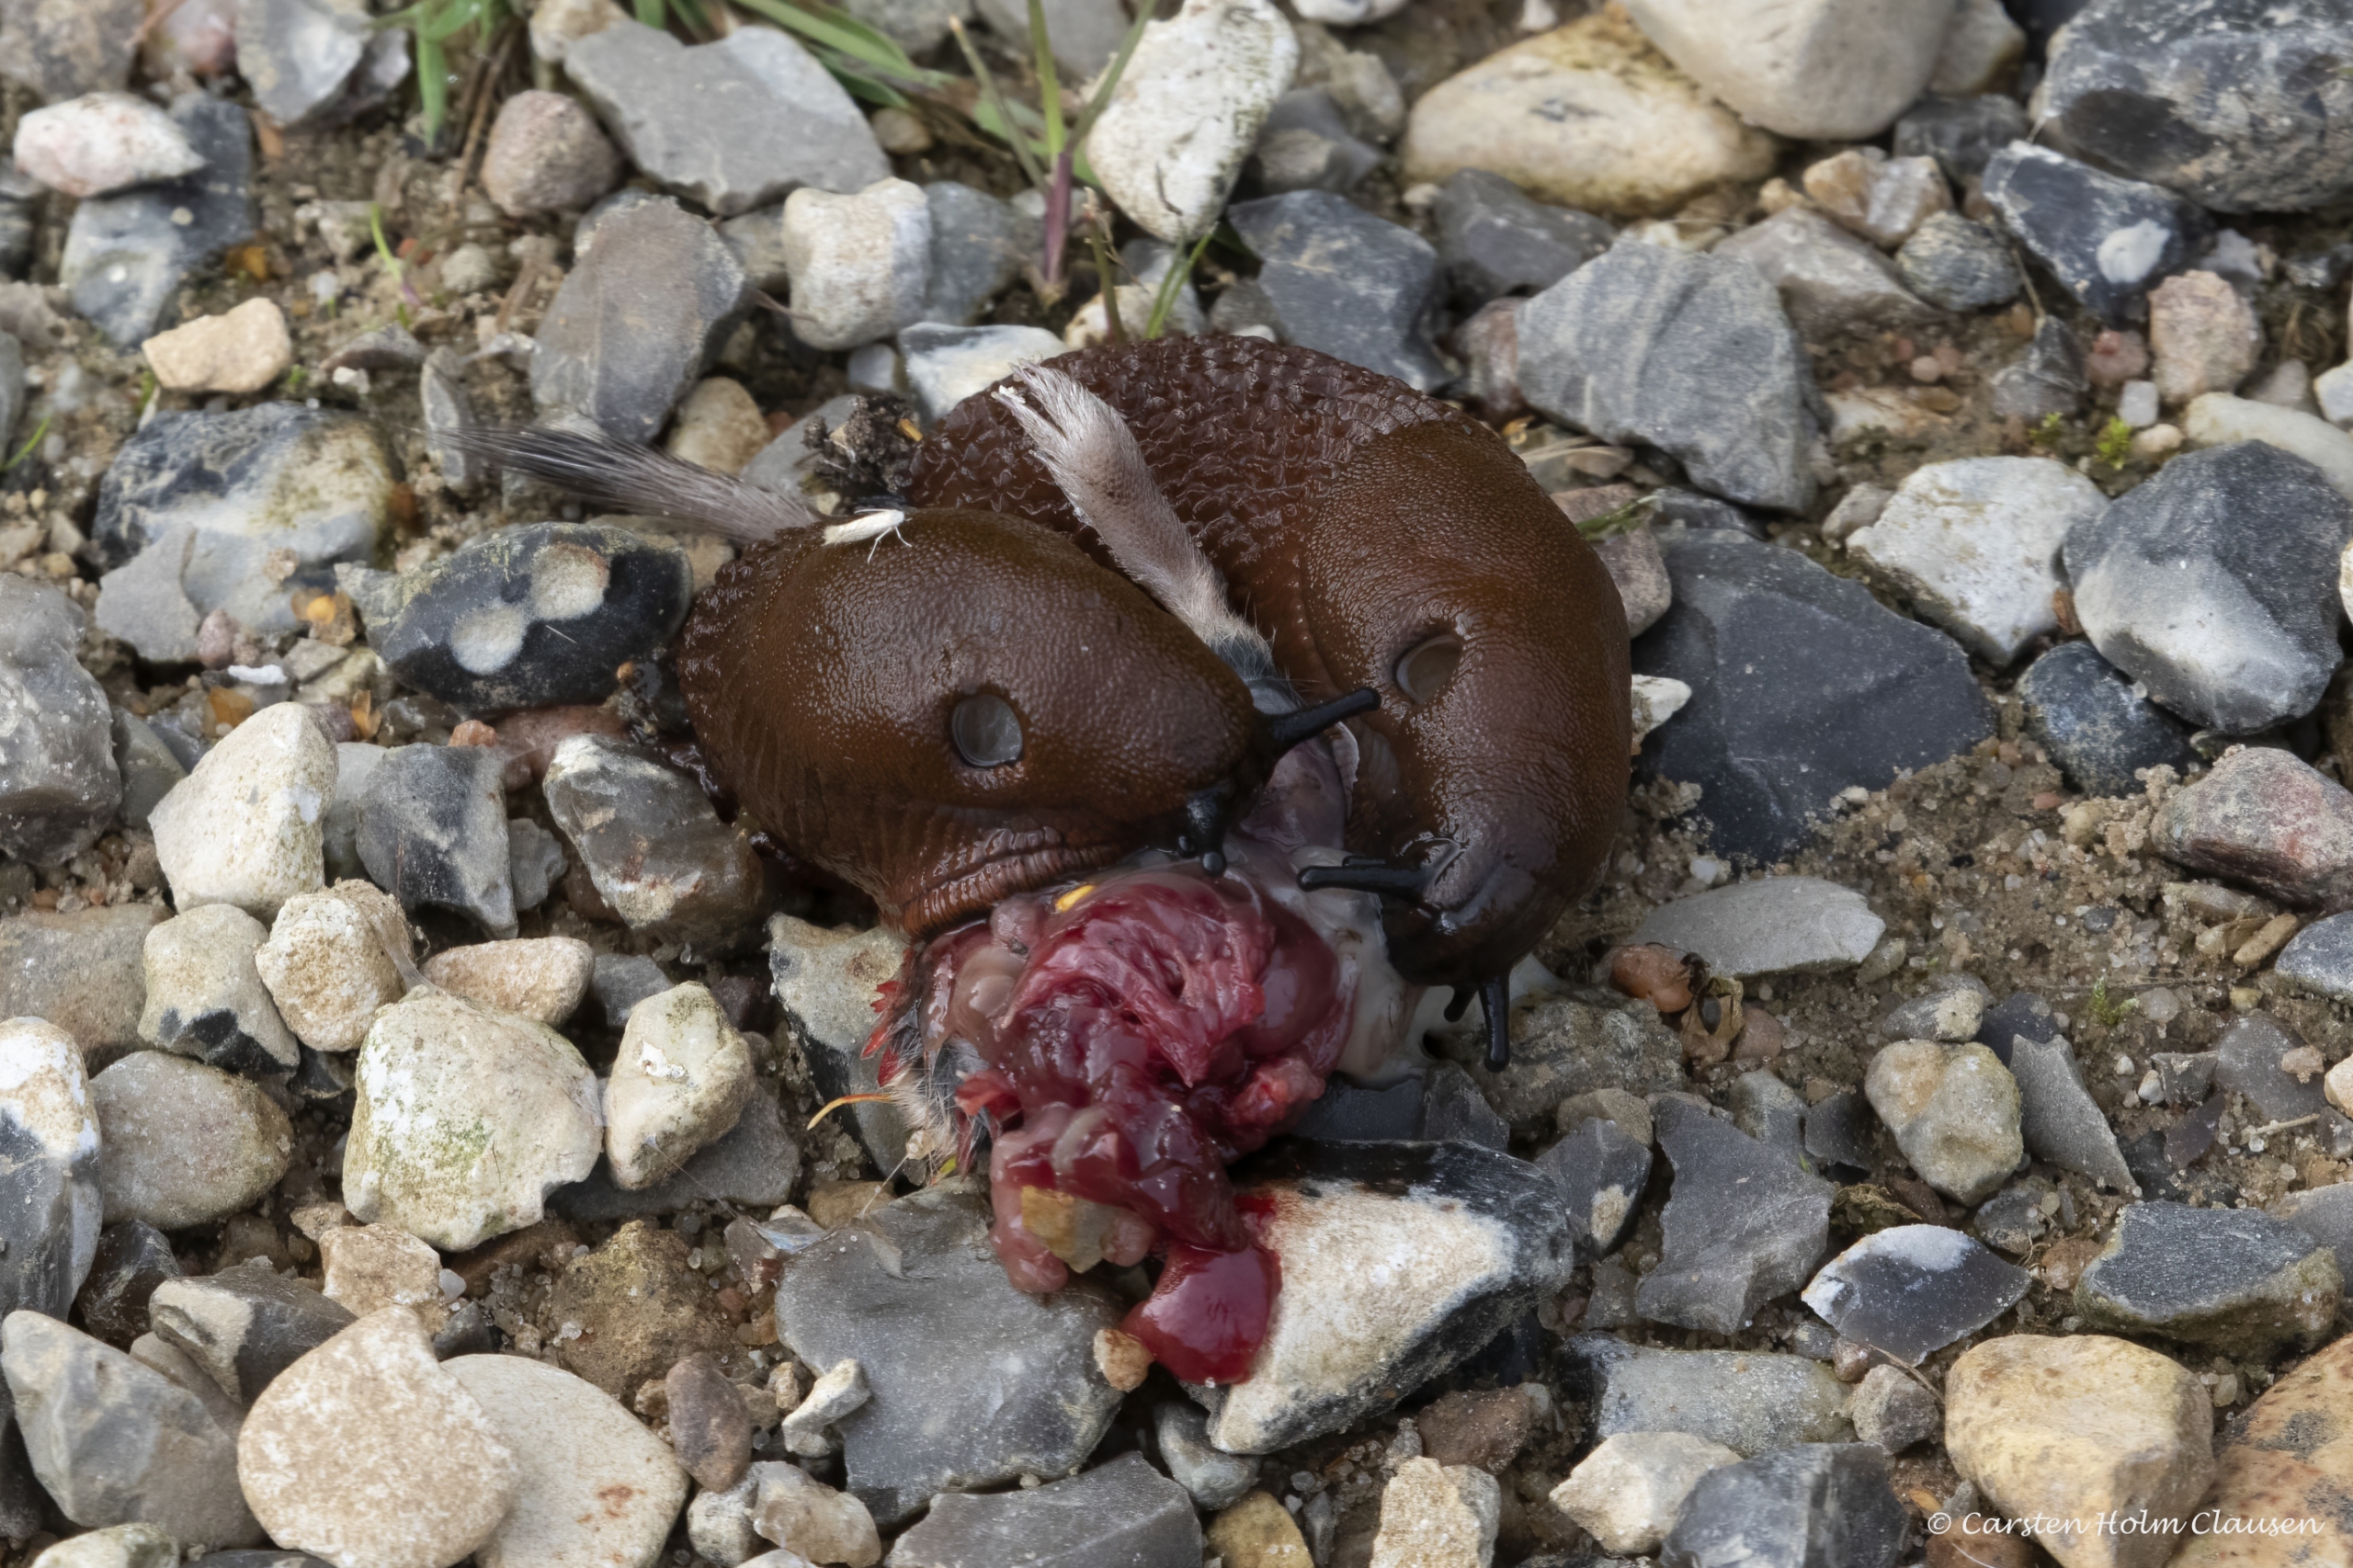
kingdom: Animalia
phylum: Mollusca
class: Gastropoda
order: Stylommatophora
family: Arionidae
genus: Arion
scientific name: Arion vulgaris
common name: Iberisk skovsnegl
